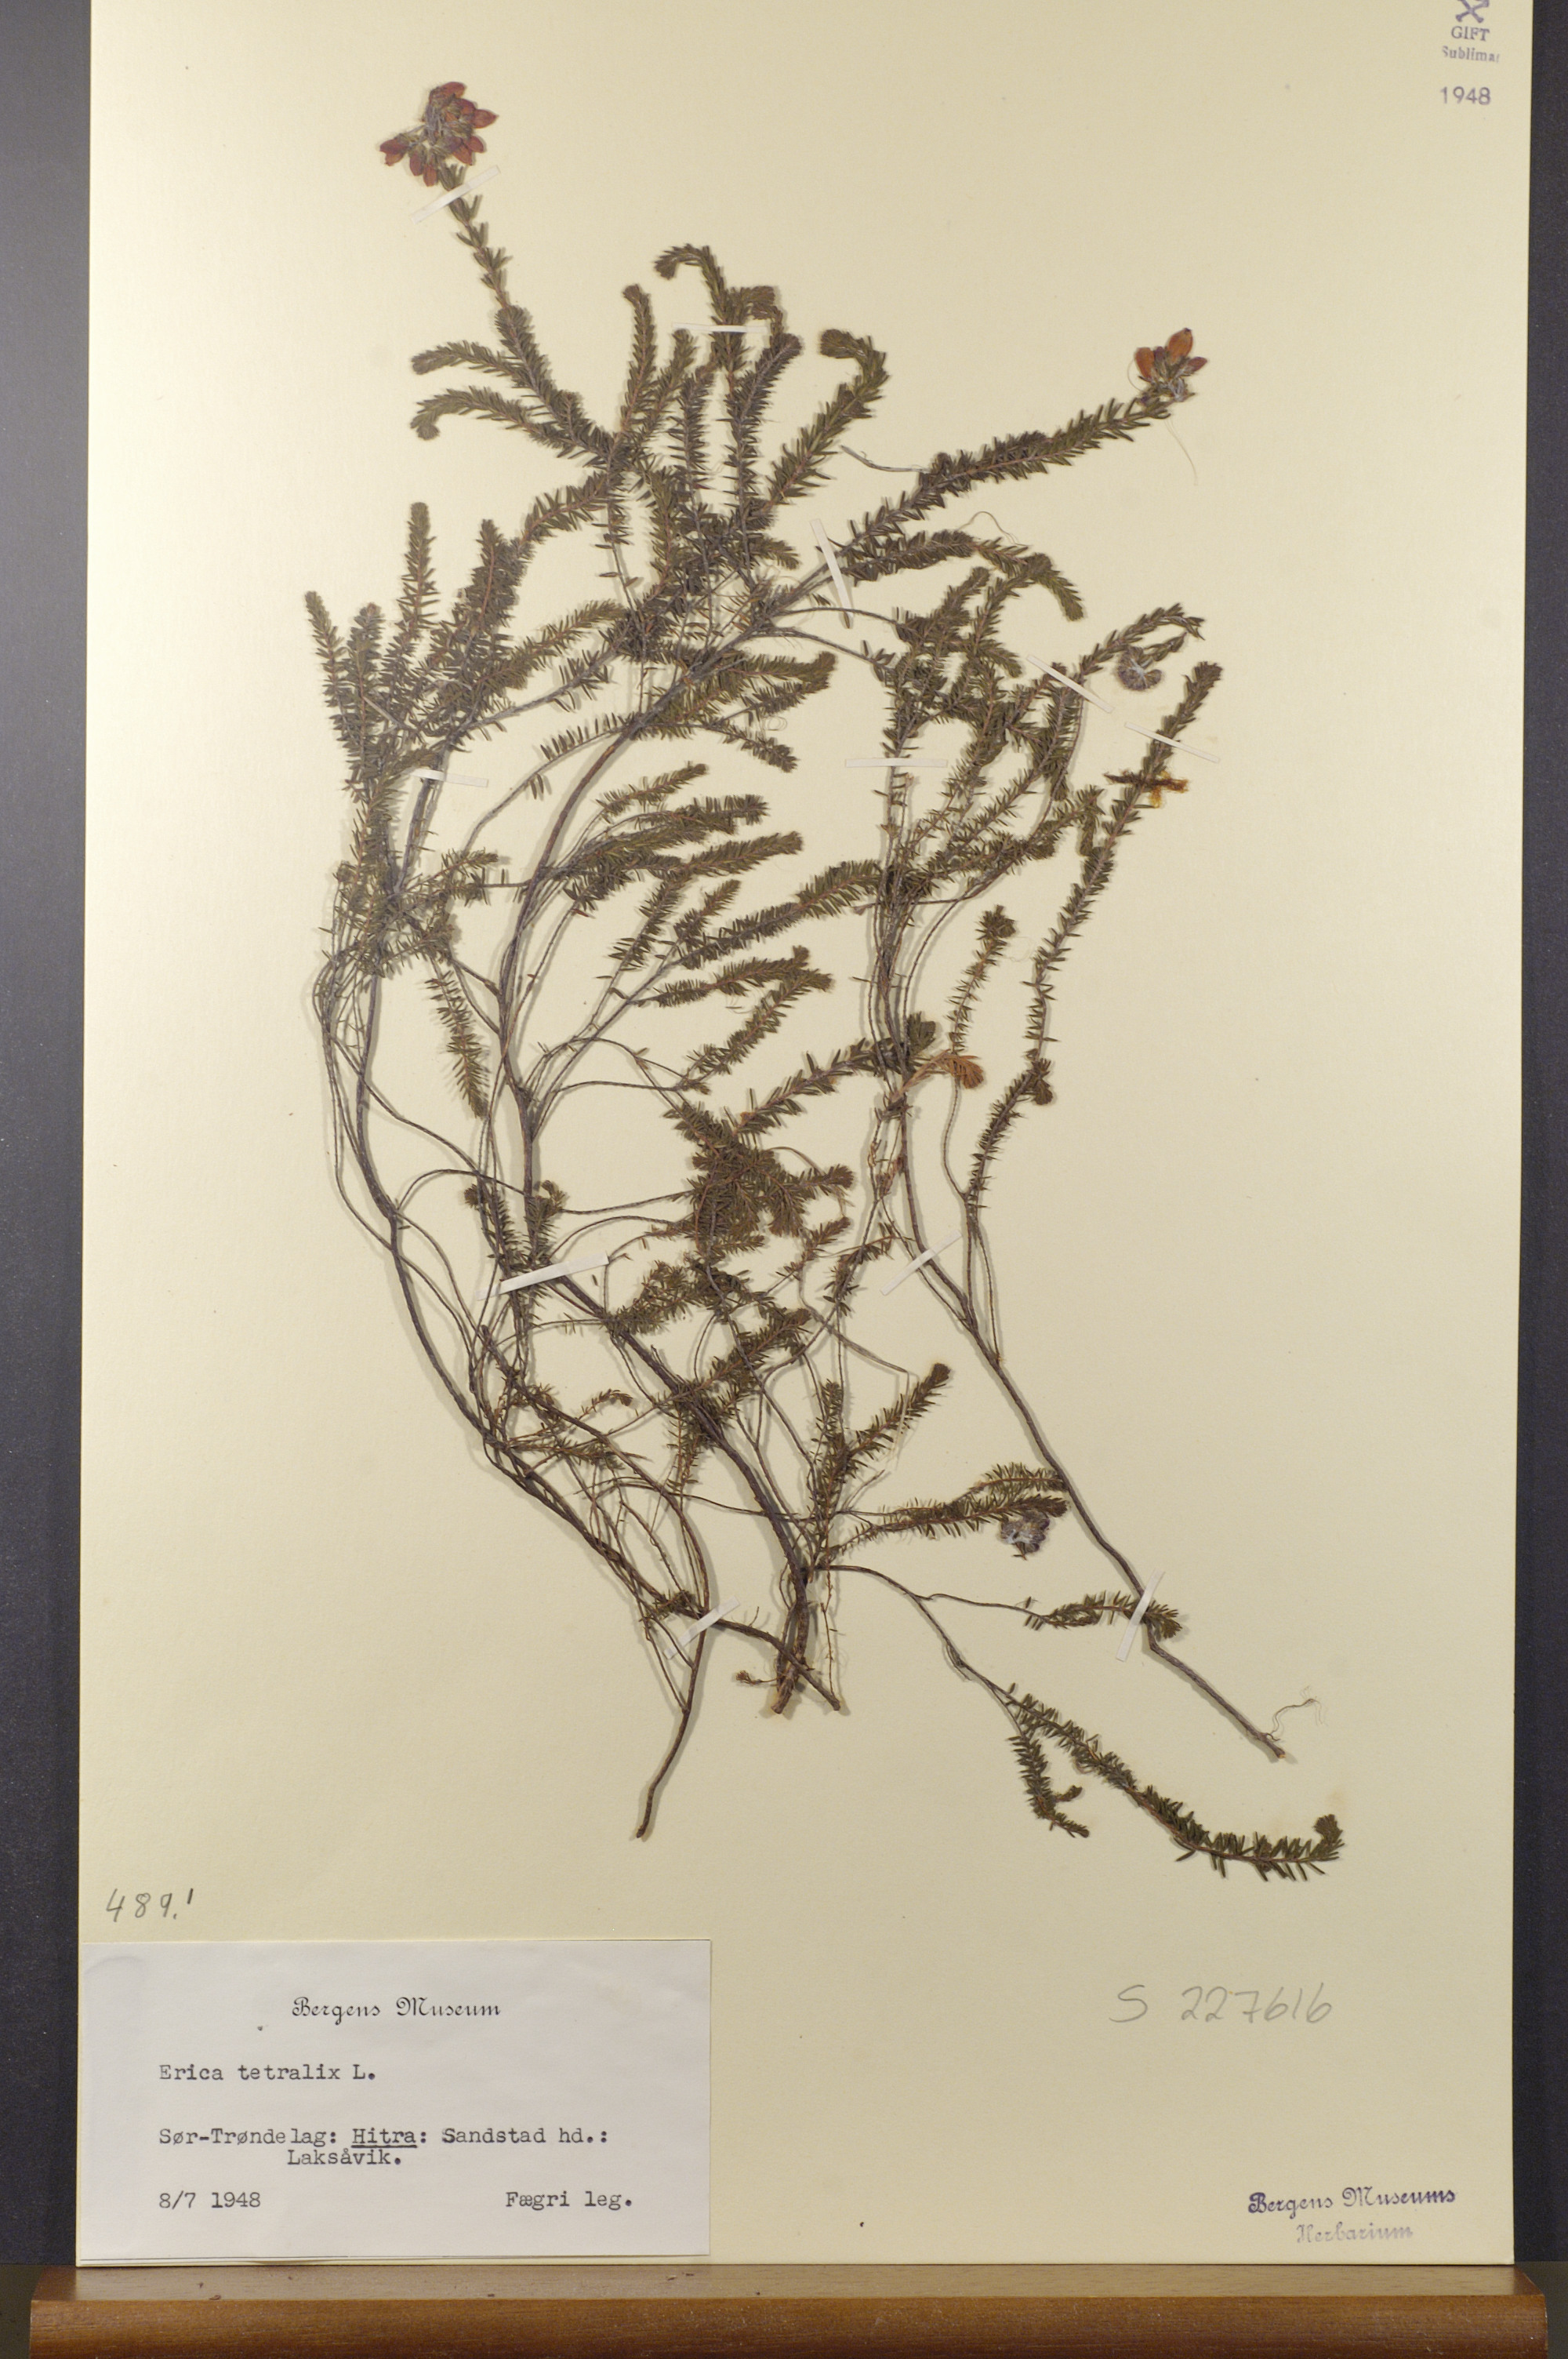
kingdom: Plantae
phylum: Tracheophyta
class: Magnoliopsida
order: Ericales
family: Ericaceae
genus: Erica
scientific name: Erica tetralix
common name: Cross-leaved heath
